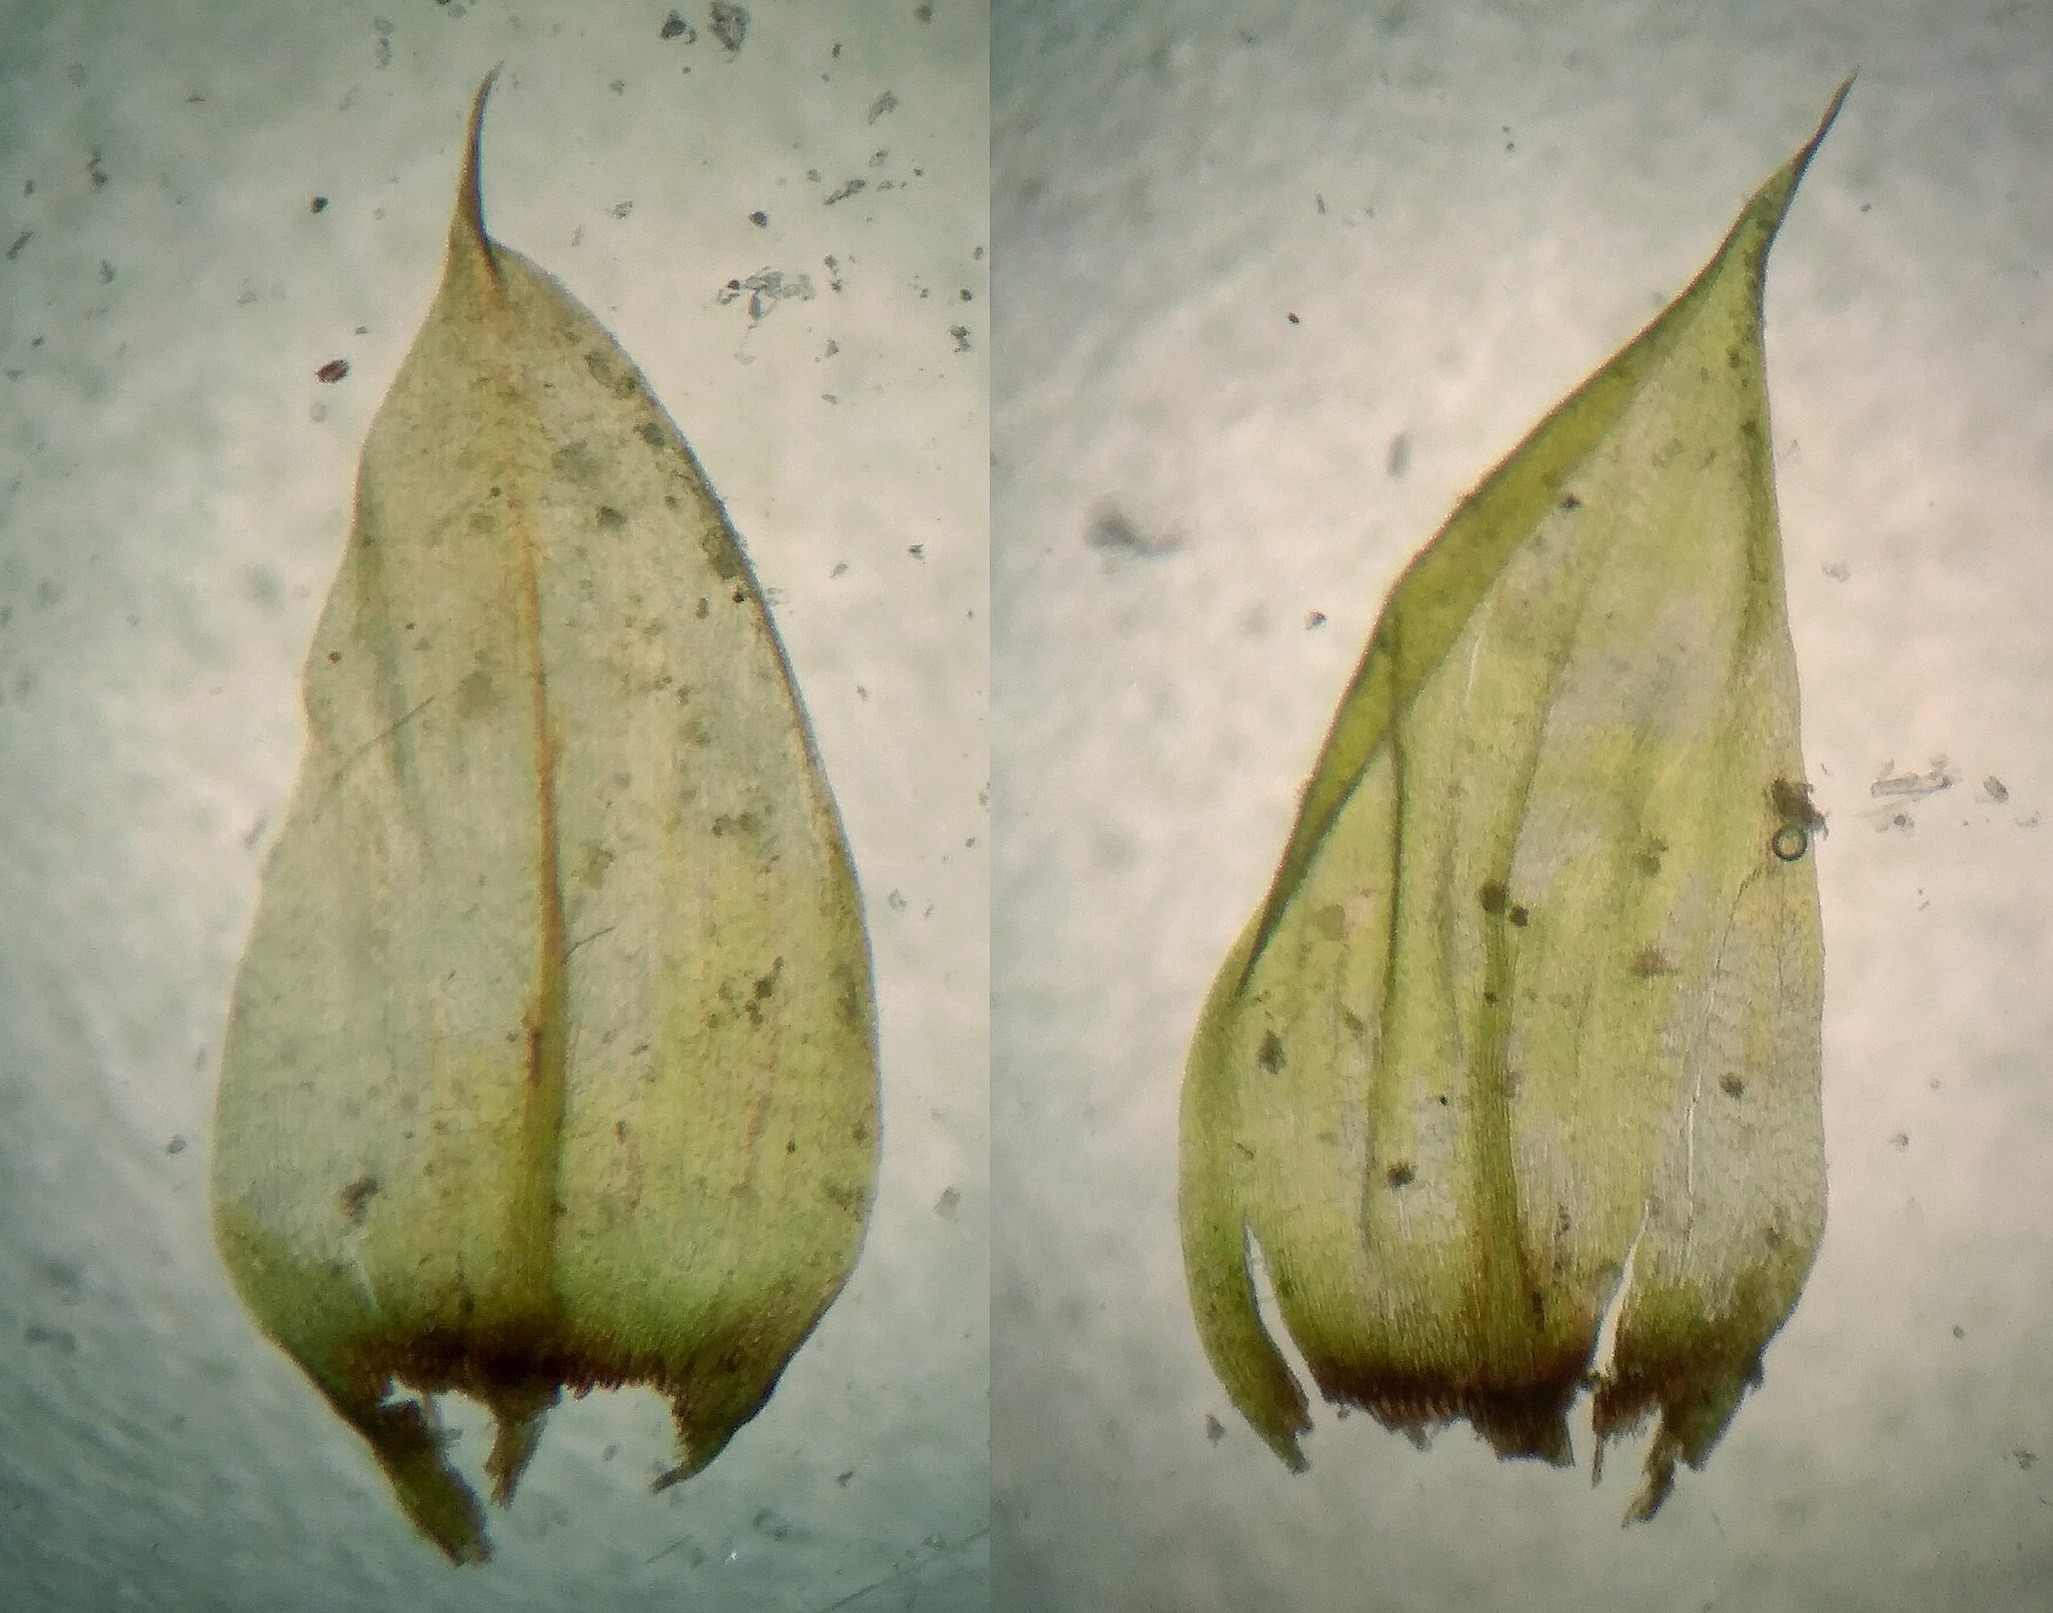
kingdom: Plantae
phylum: Bryophyta
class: Bryopsida
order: Hypnales
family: Brachytheciaceae
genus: Sciuro-hypnum
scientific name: Sciuro-hypnum plumosum
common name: Sten-kortkapsel
